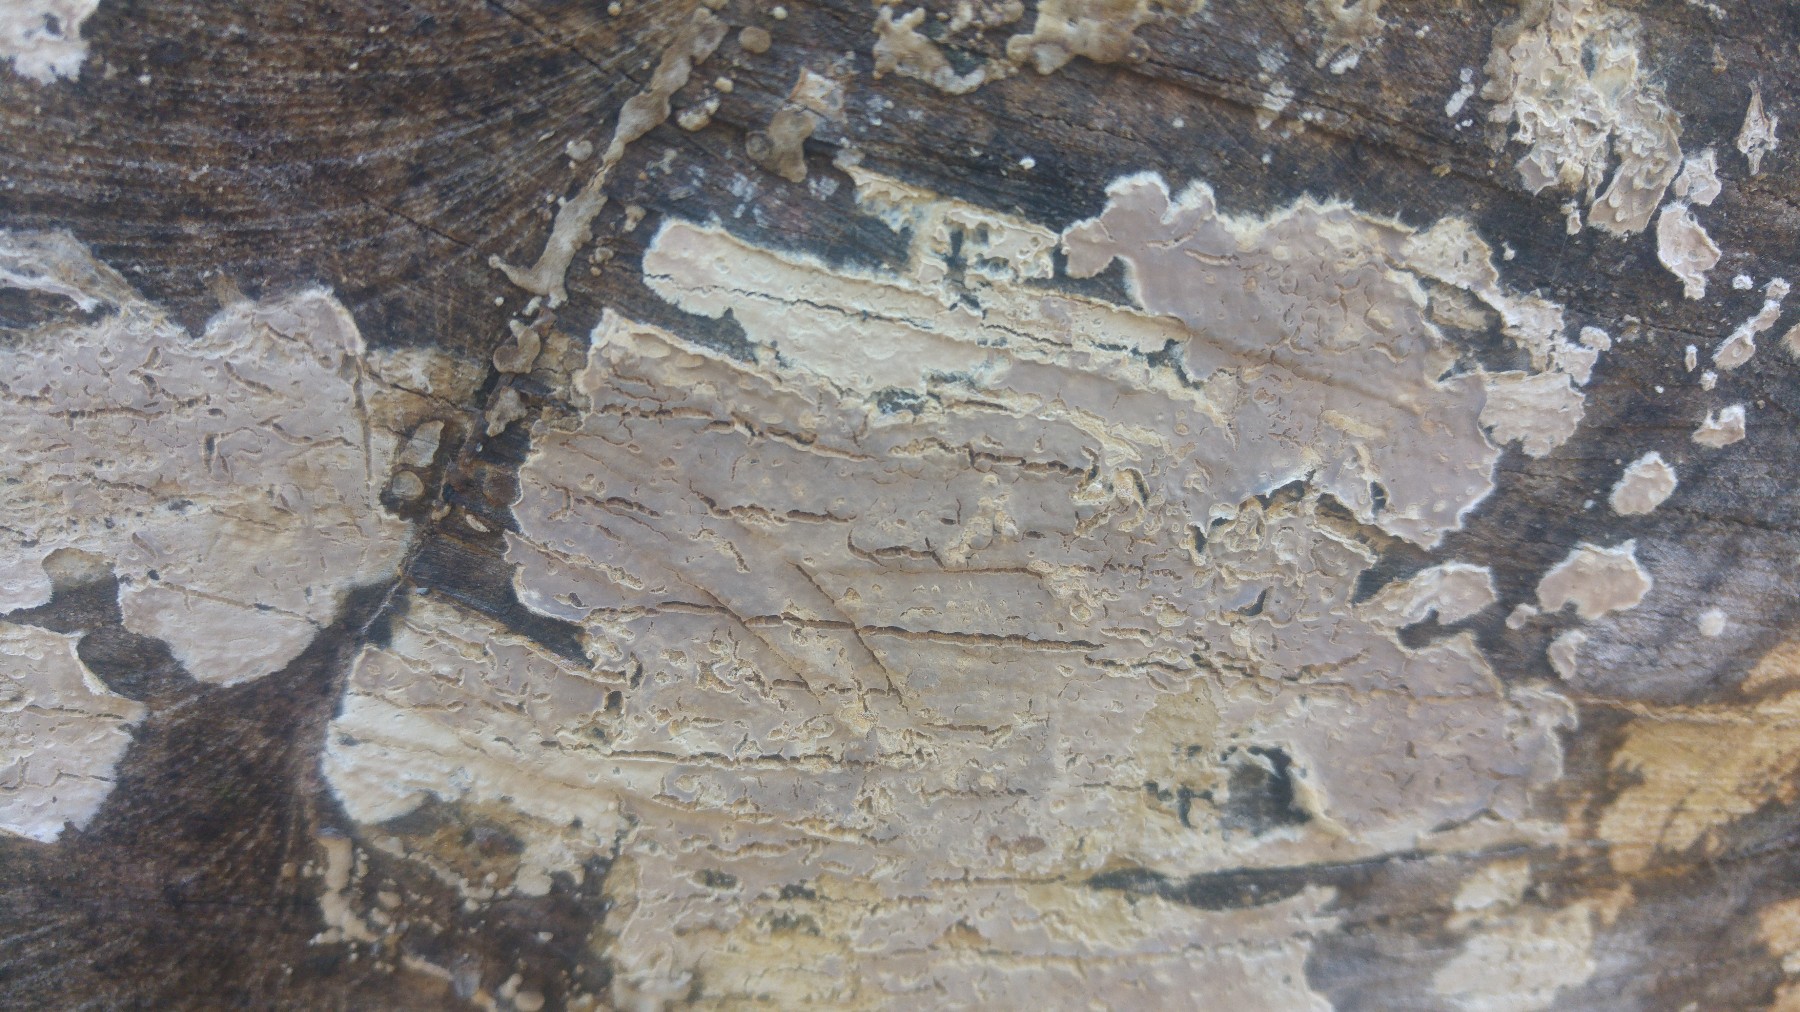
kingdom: Fungi
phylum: Basidiomycota
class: Agaricomycetes
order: Agaricales
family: Physalacriaceae
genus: Cylindrobasidium
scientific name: Cylindrobasidium evolvens
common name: sprækkehinde
